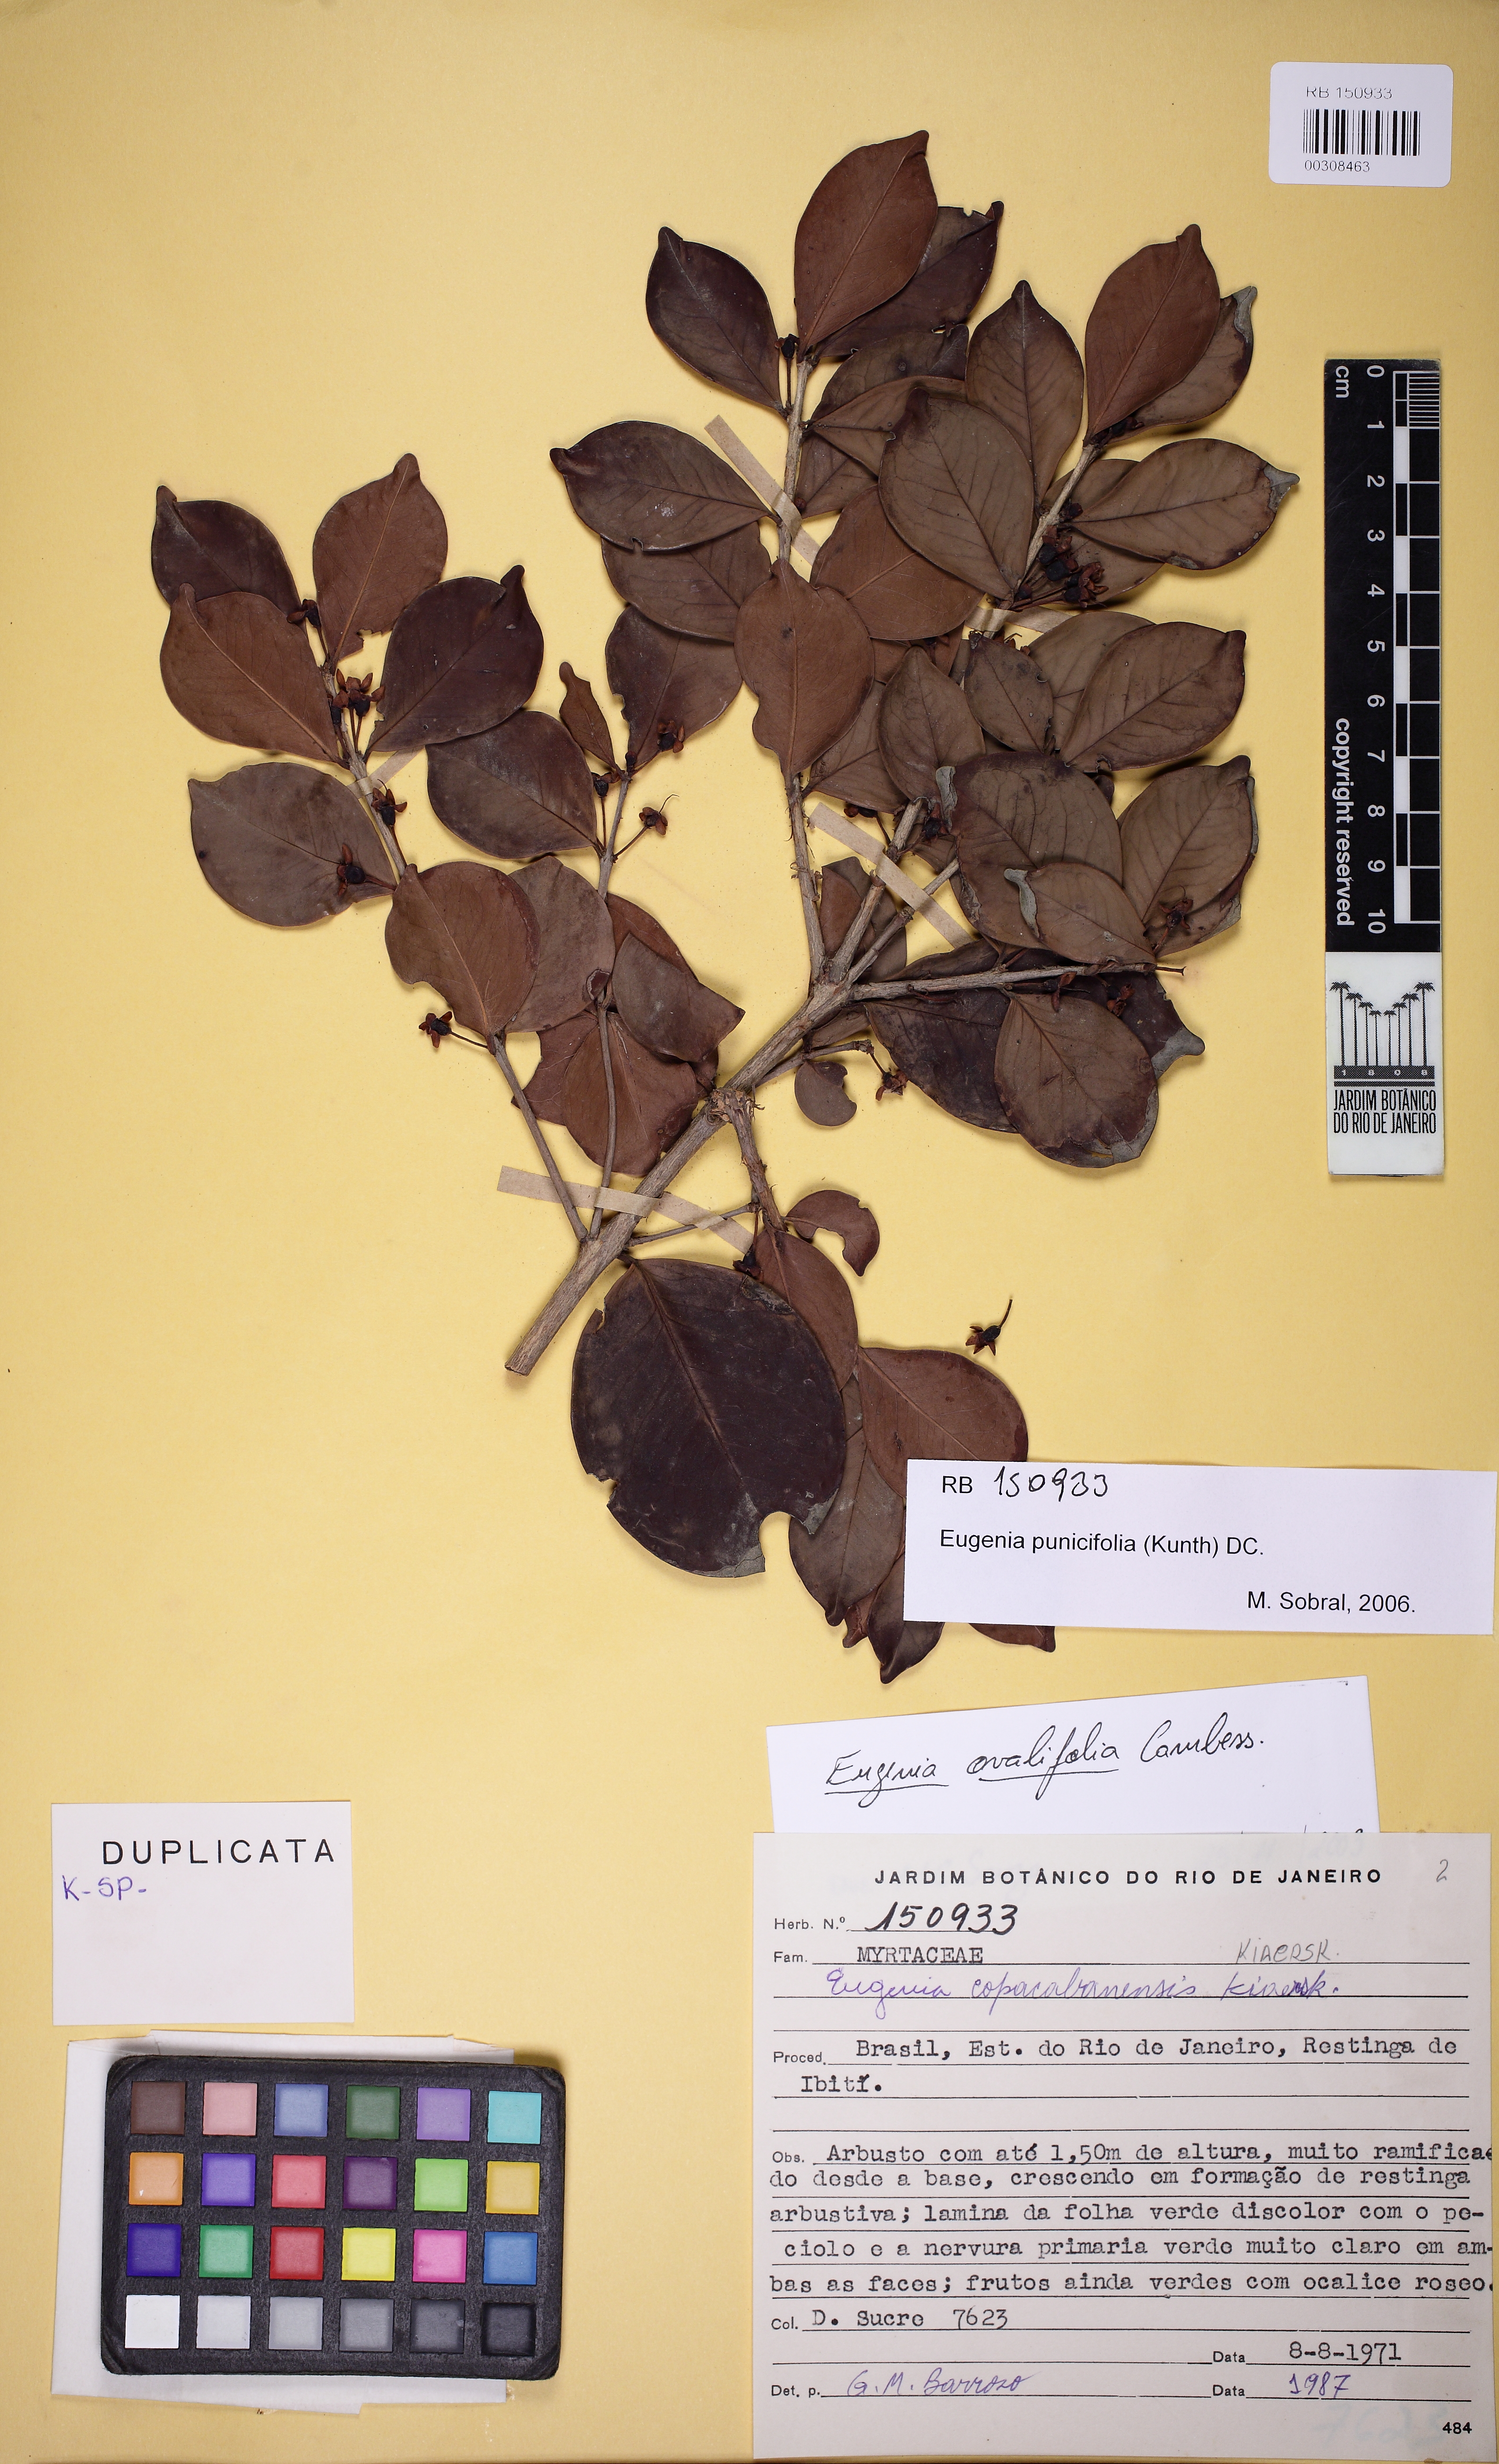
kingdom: Plantae
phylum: Tracheophyta
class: Magnoliopsida
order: Myrtales
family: Myrtaceae
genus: Eugenia
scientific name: Eugenia punicifolia
